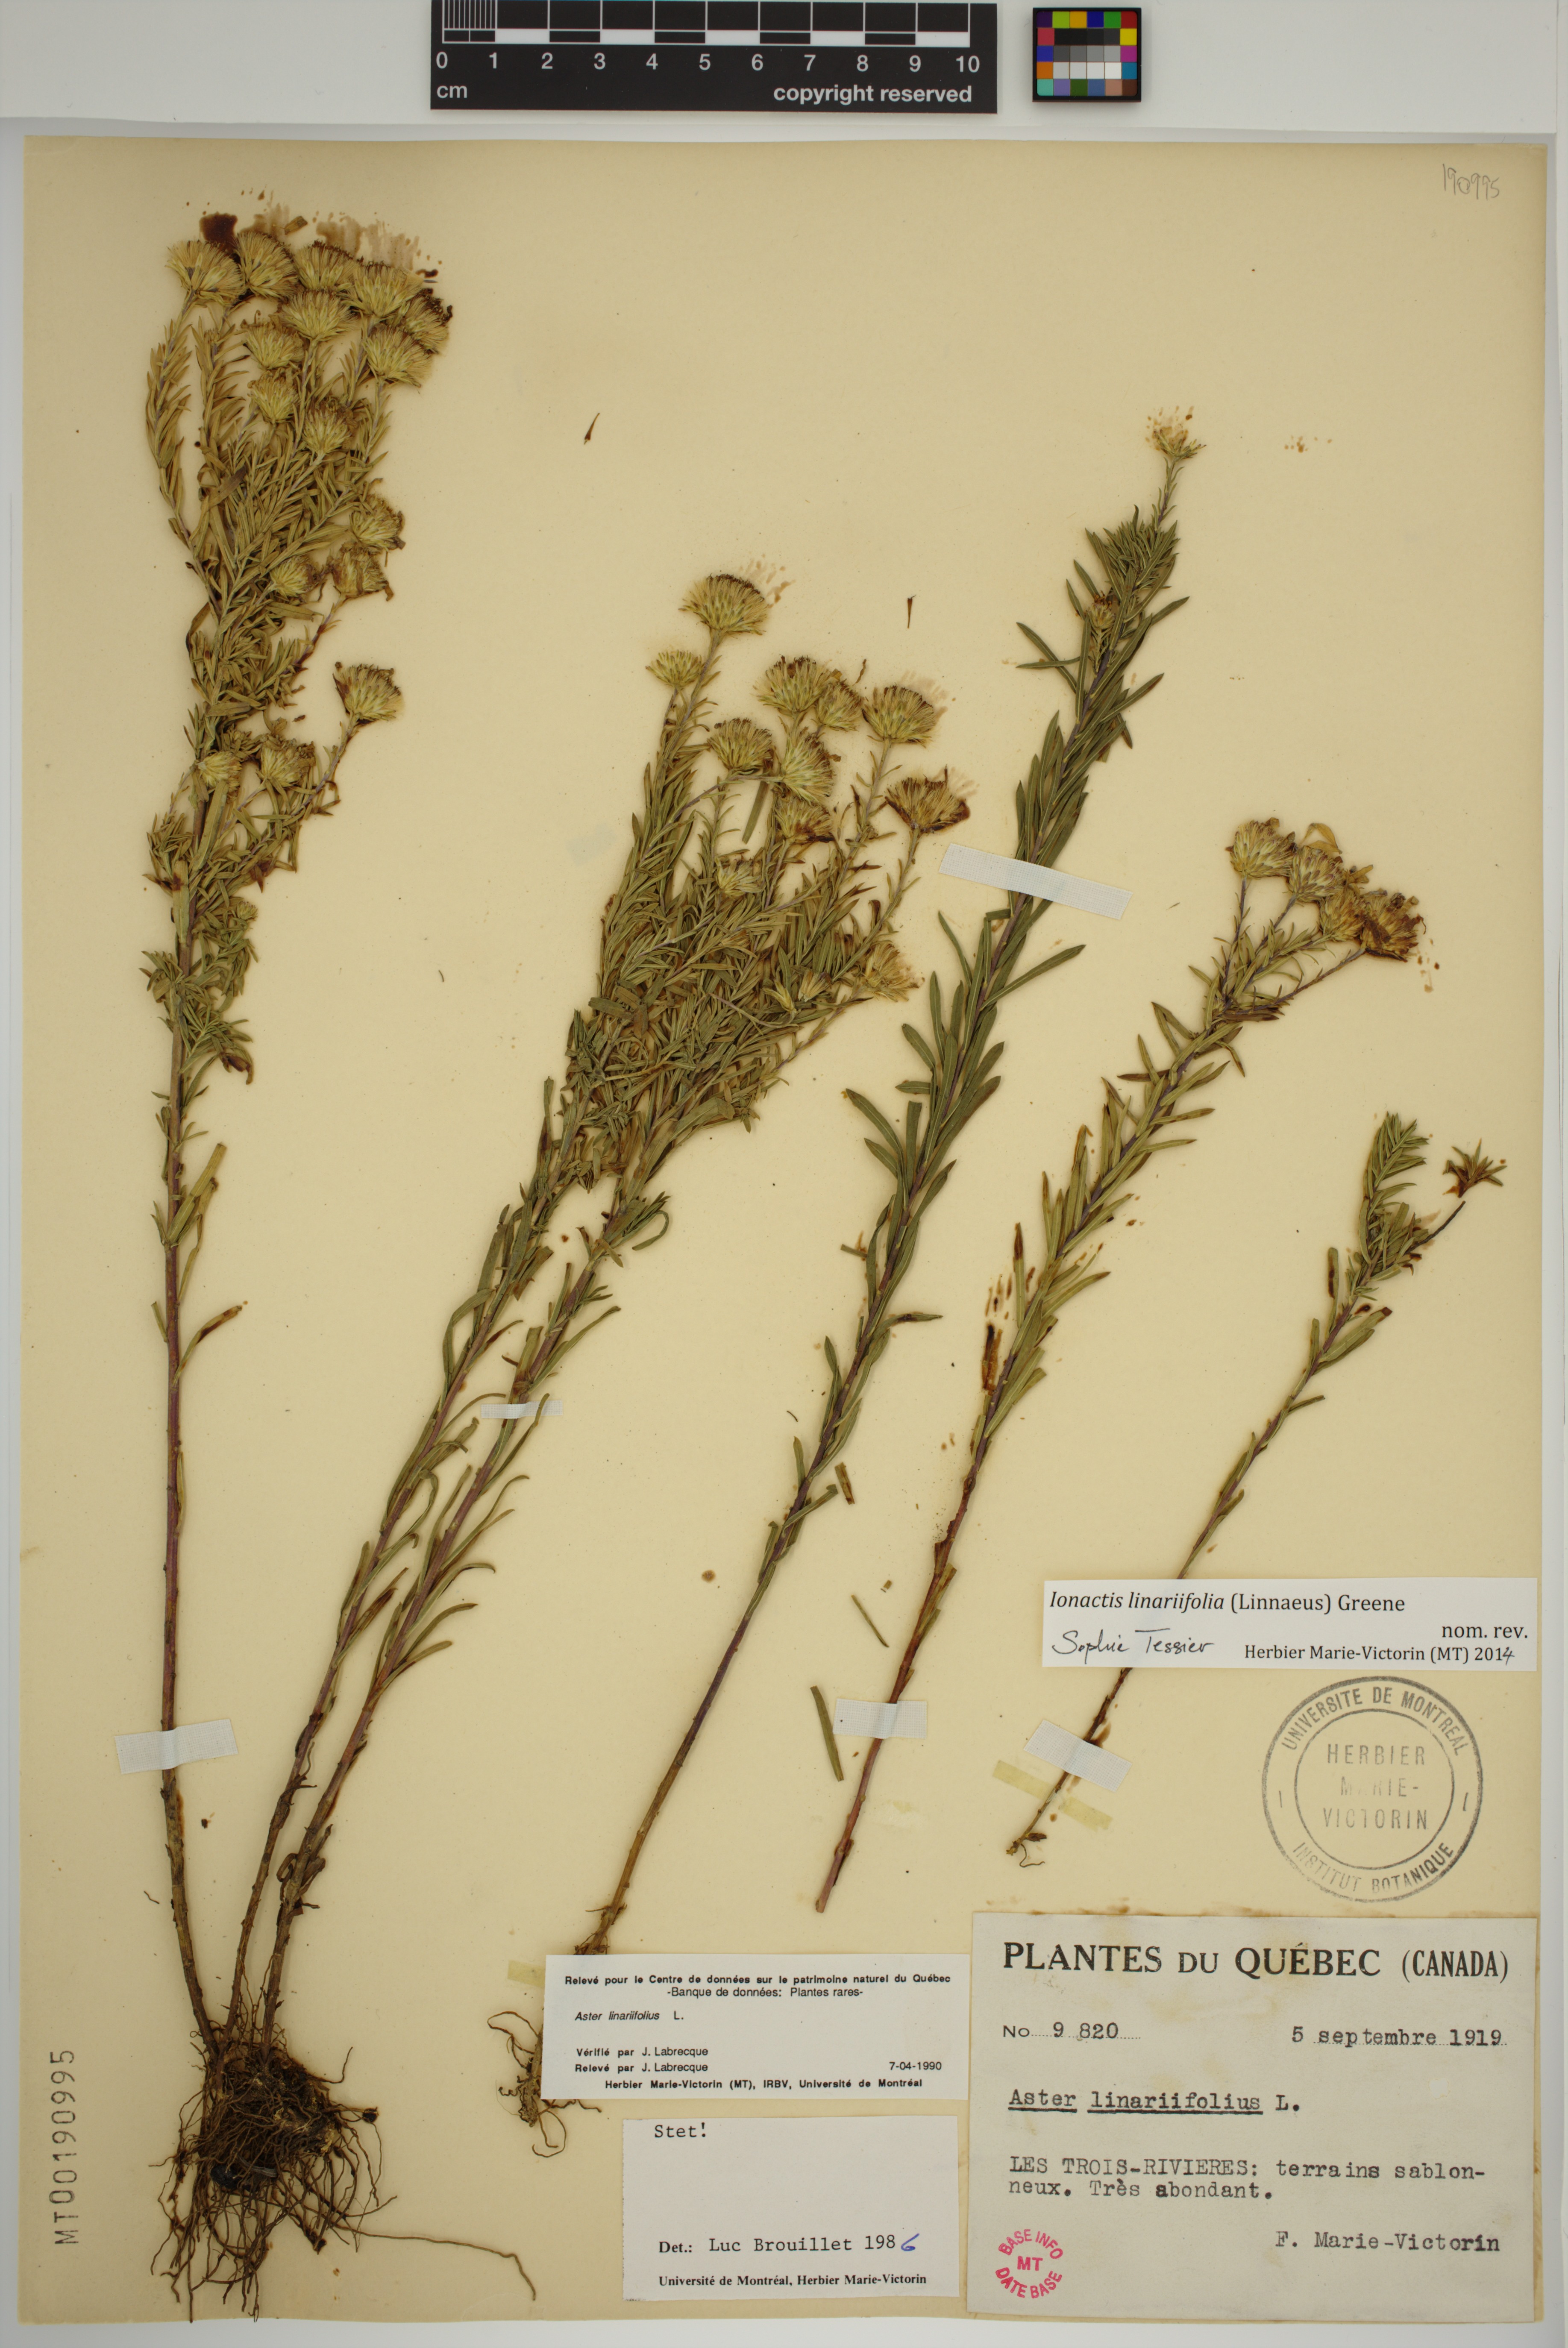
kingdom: Plantae
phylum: Tracheophyta
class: Magnoliopsida
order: Asterales
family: Asteraceae
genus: Ionactis
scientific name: Ionactis linariifolia
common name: Flax-leaf aster
